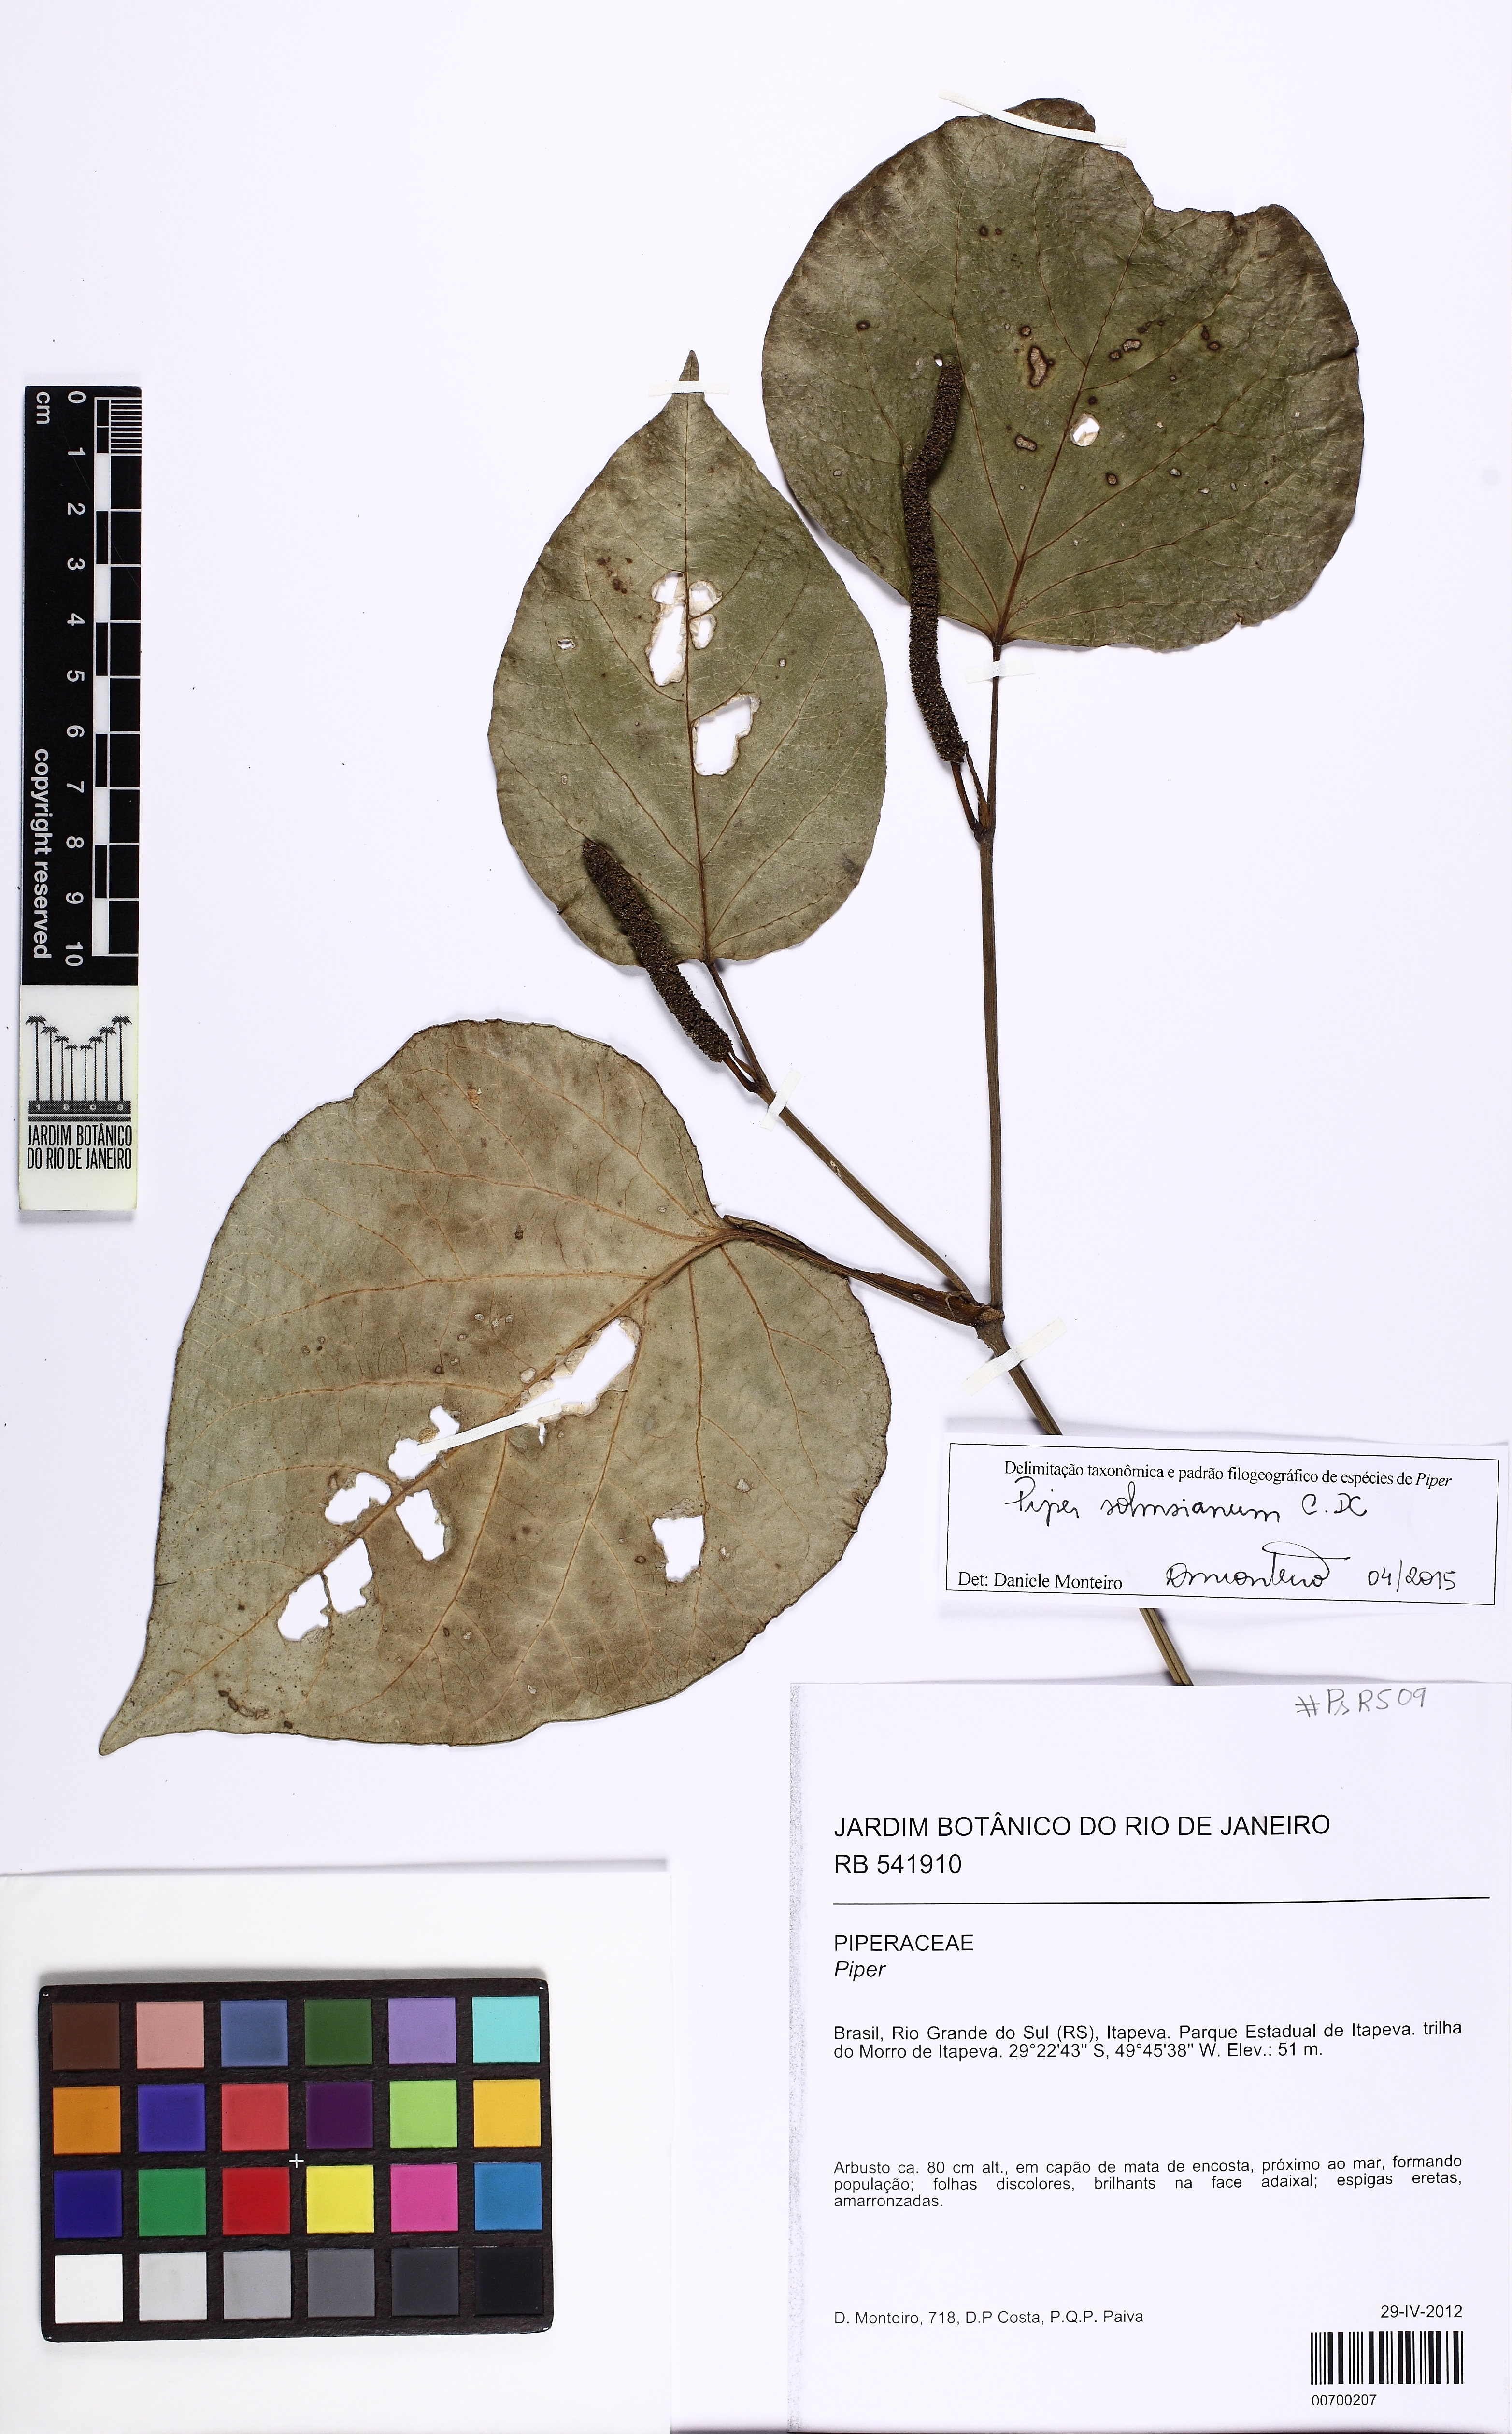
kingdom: Plantae
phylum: Tracheophyta
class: Magnoliopsida
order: Piperales
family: Piperaceae
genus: Piper
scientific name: Piper solmsianum
